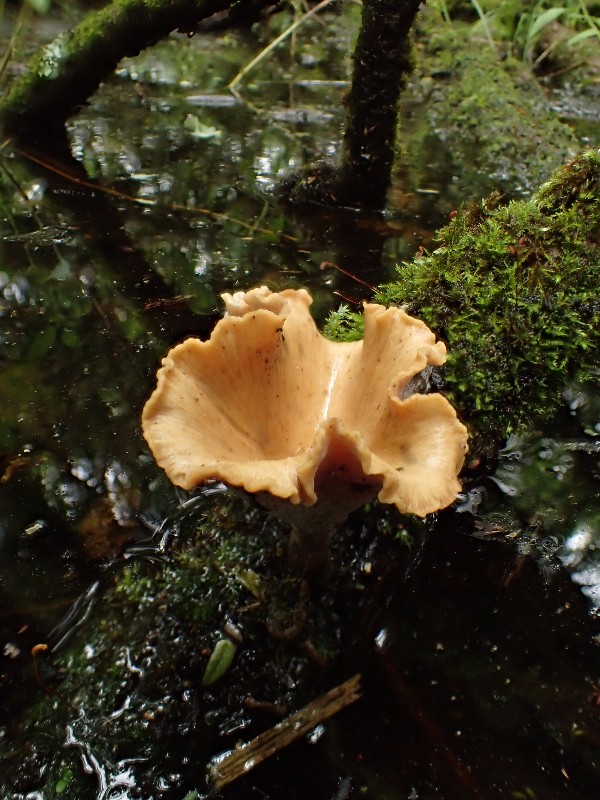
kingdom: Fungi
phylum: Basidiomycota
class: Agaricomycetes
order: Polyporales
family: Polyporaceae
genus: Cerioporus
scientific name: Cerioporus varius
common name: foranderlig stilkporesvamp
